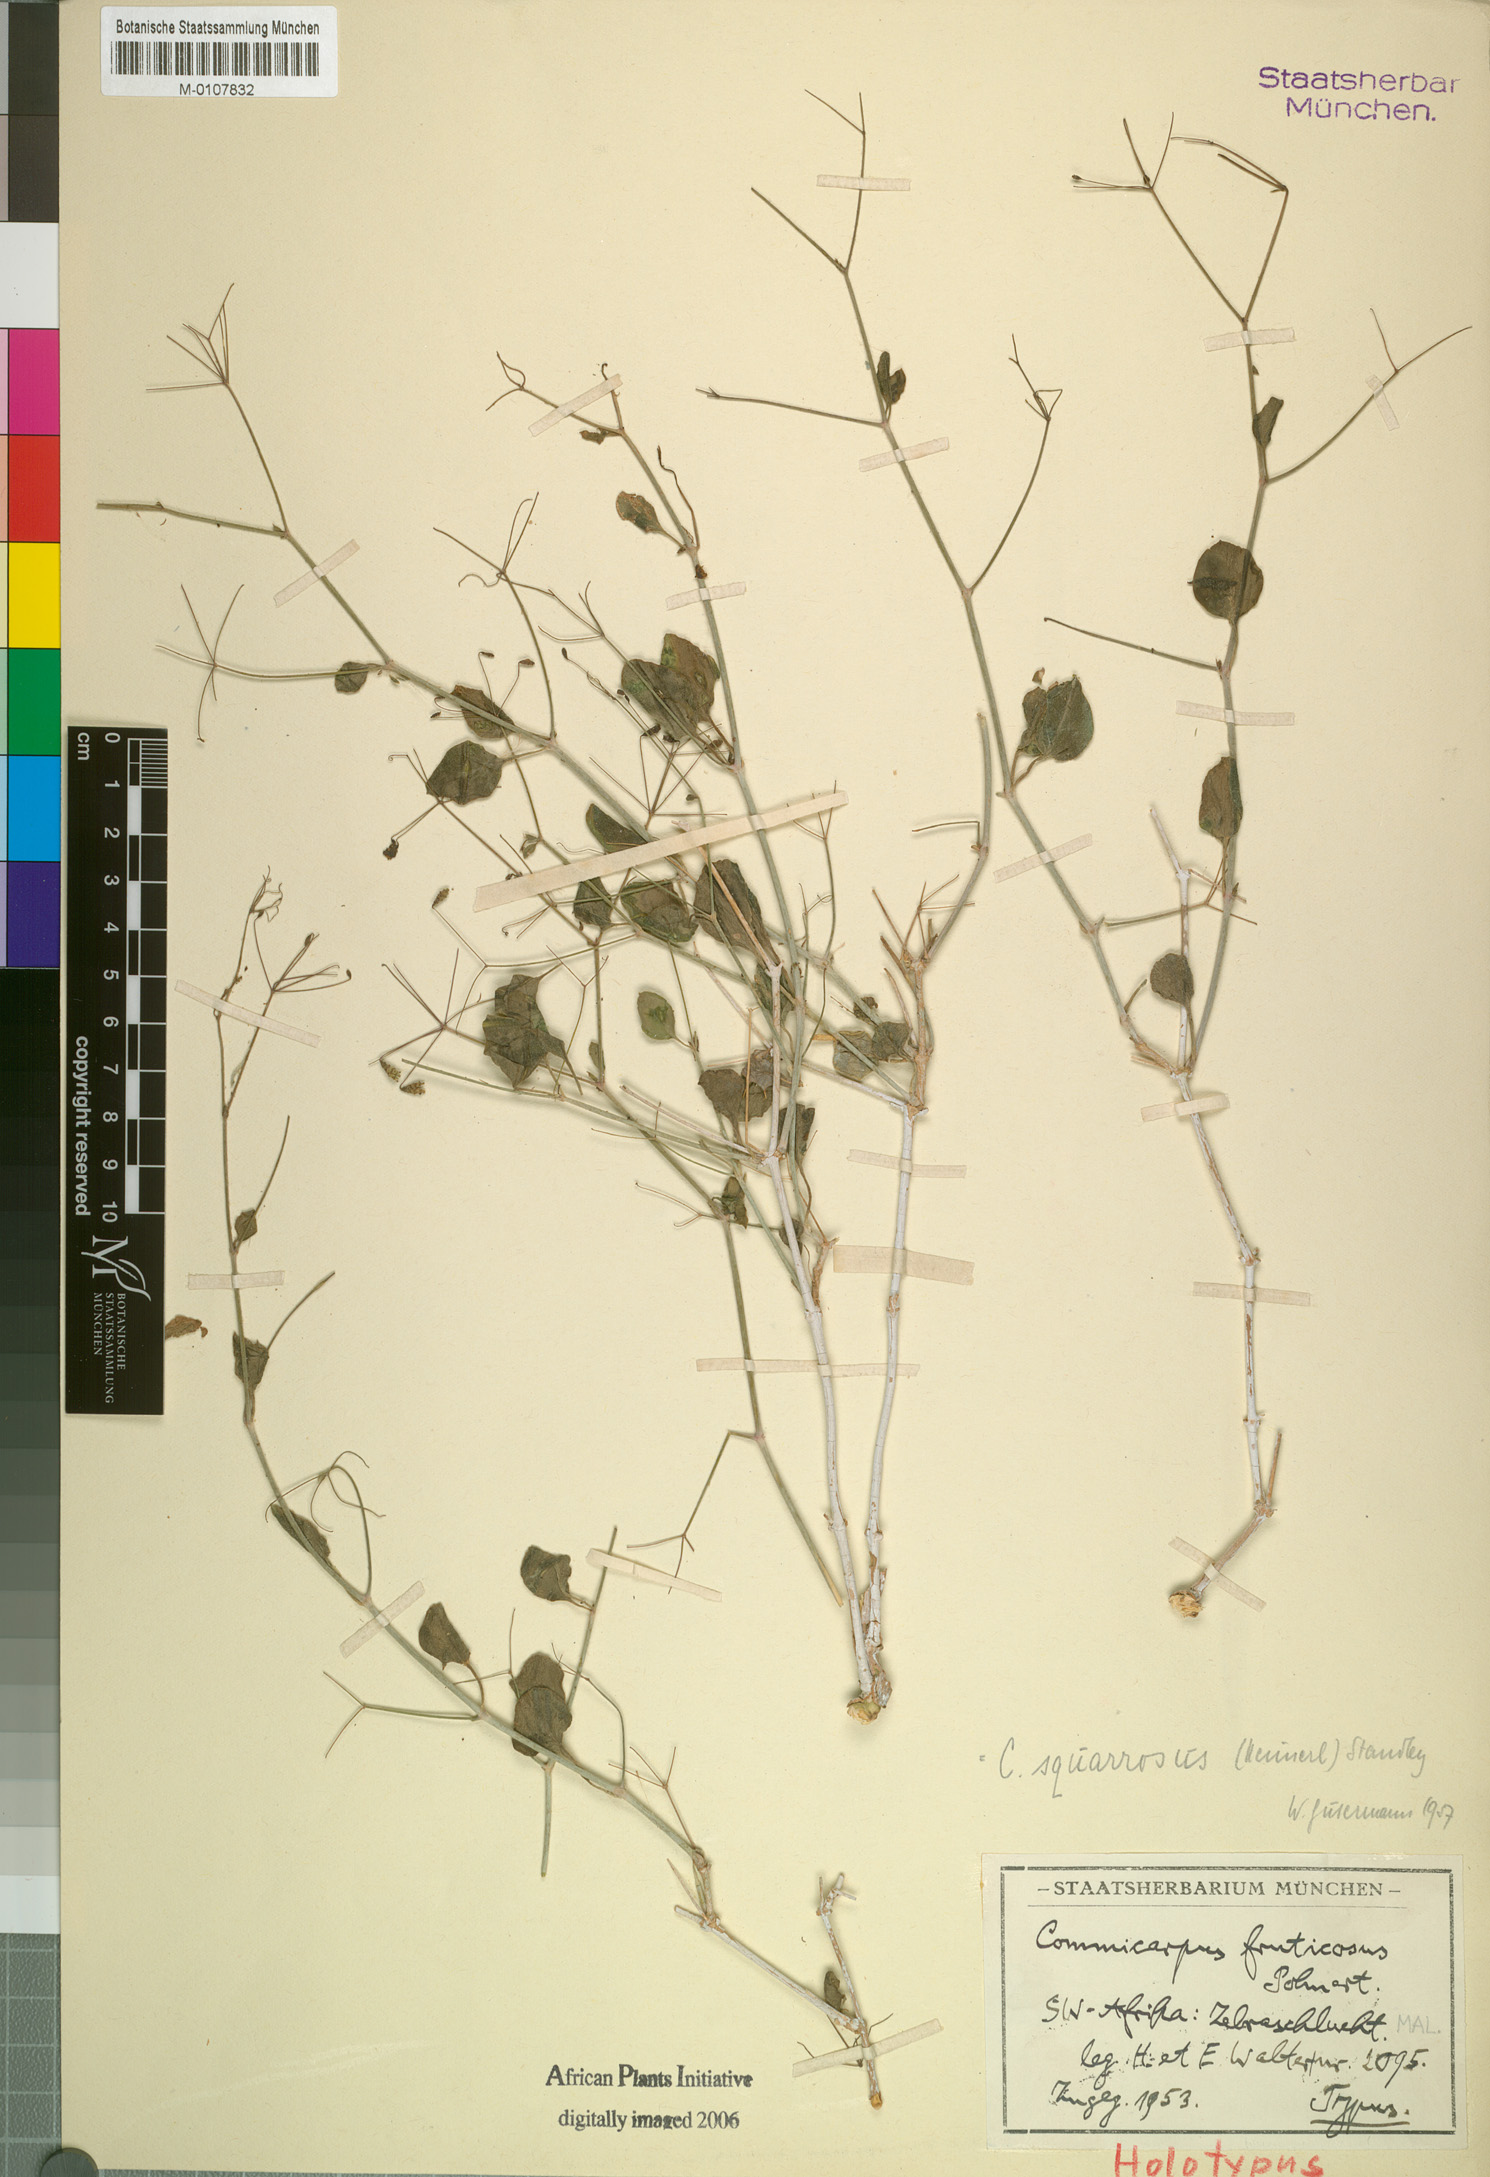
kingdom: Plantae
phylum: Tracheophyta
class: Magnoliopsida
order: Caryophyllales
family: Nyctaginaceae
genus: Commicarpus
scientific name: Commicarpus squarrosus
